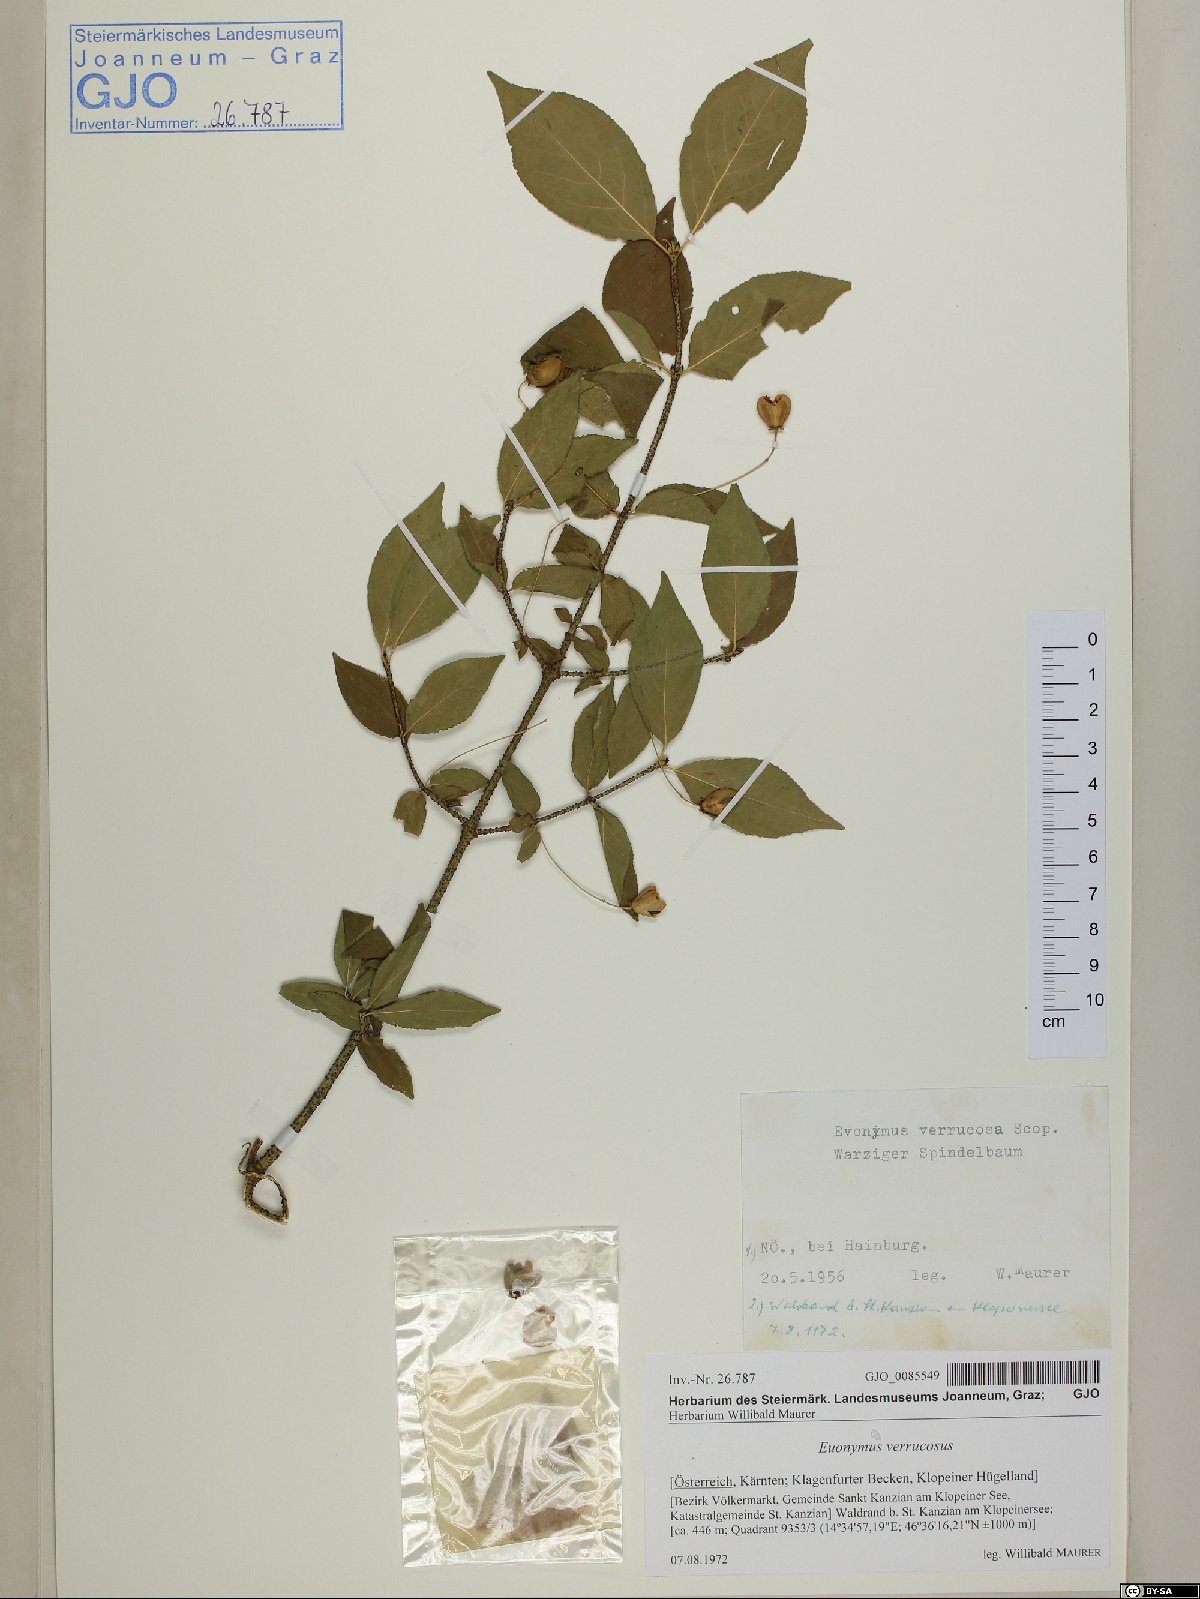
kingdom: Plantae
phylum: Tracheophyta
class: Magnoliopsida
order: Celastrales
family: Celastraceae
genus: Euonymus
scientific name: Euonymus verrucosus
